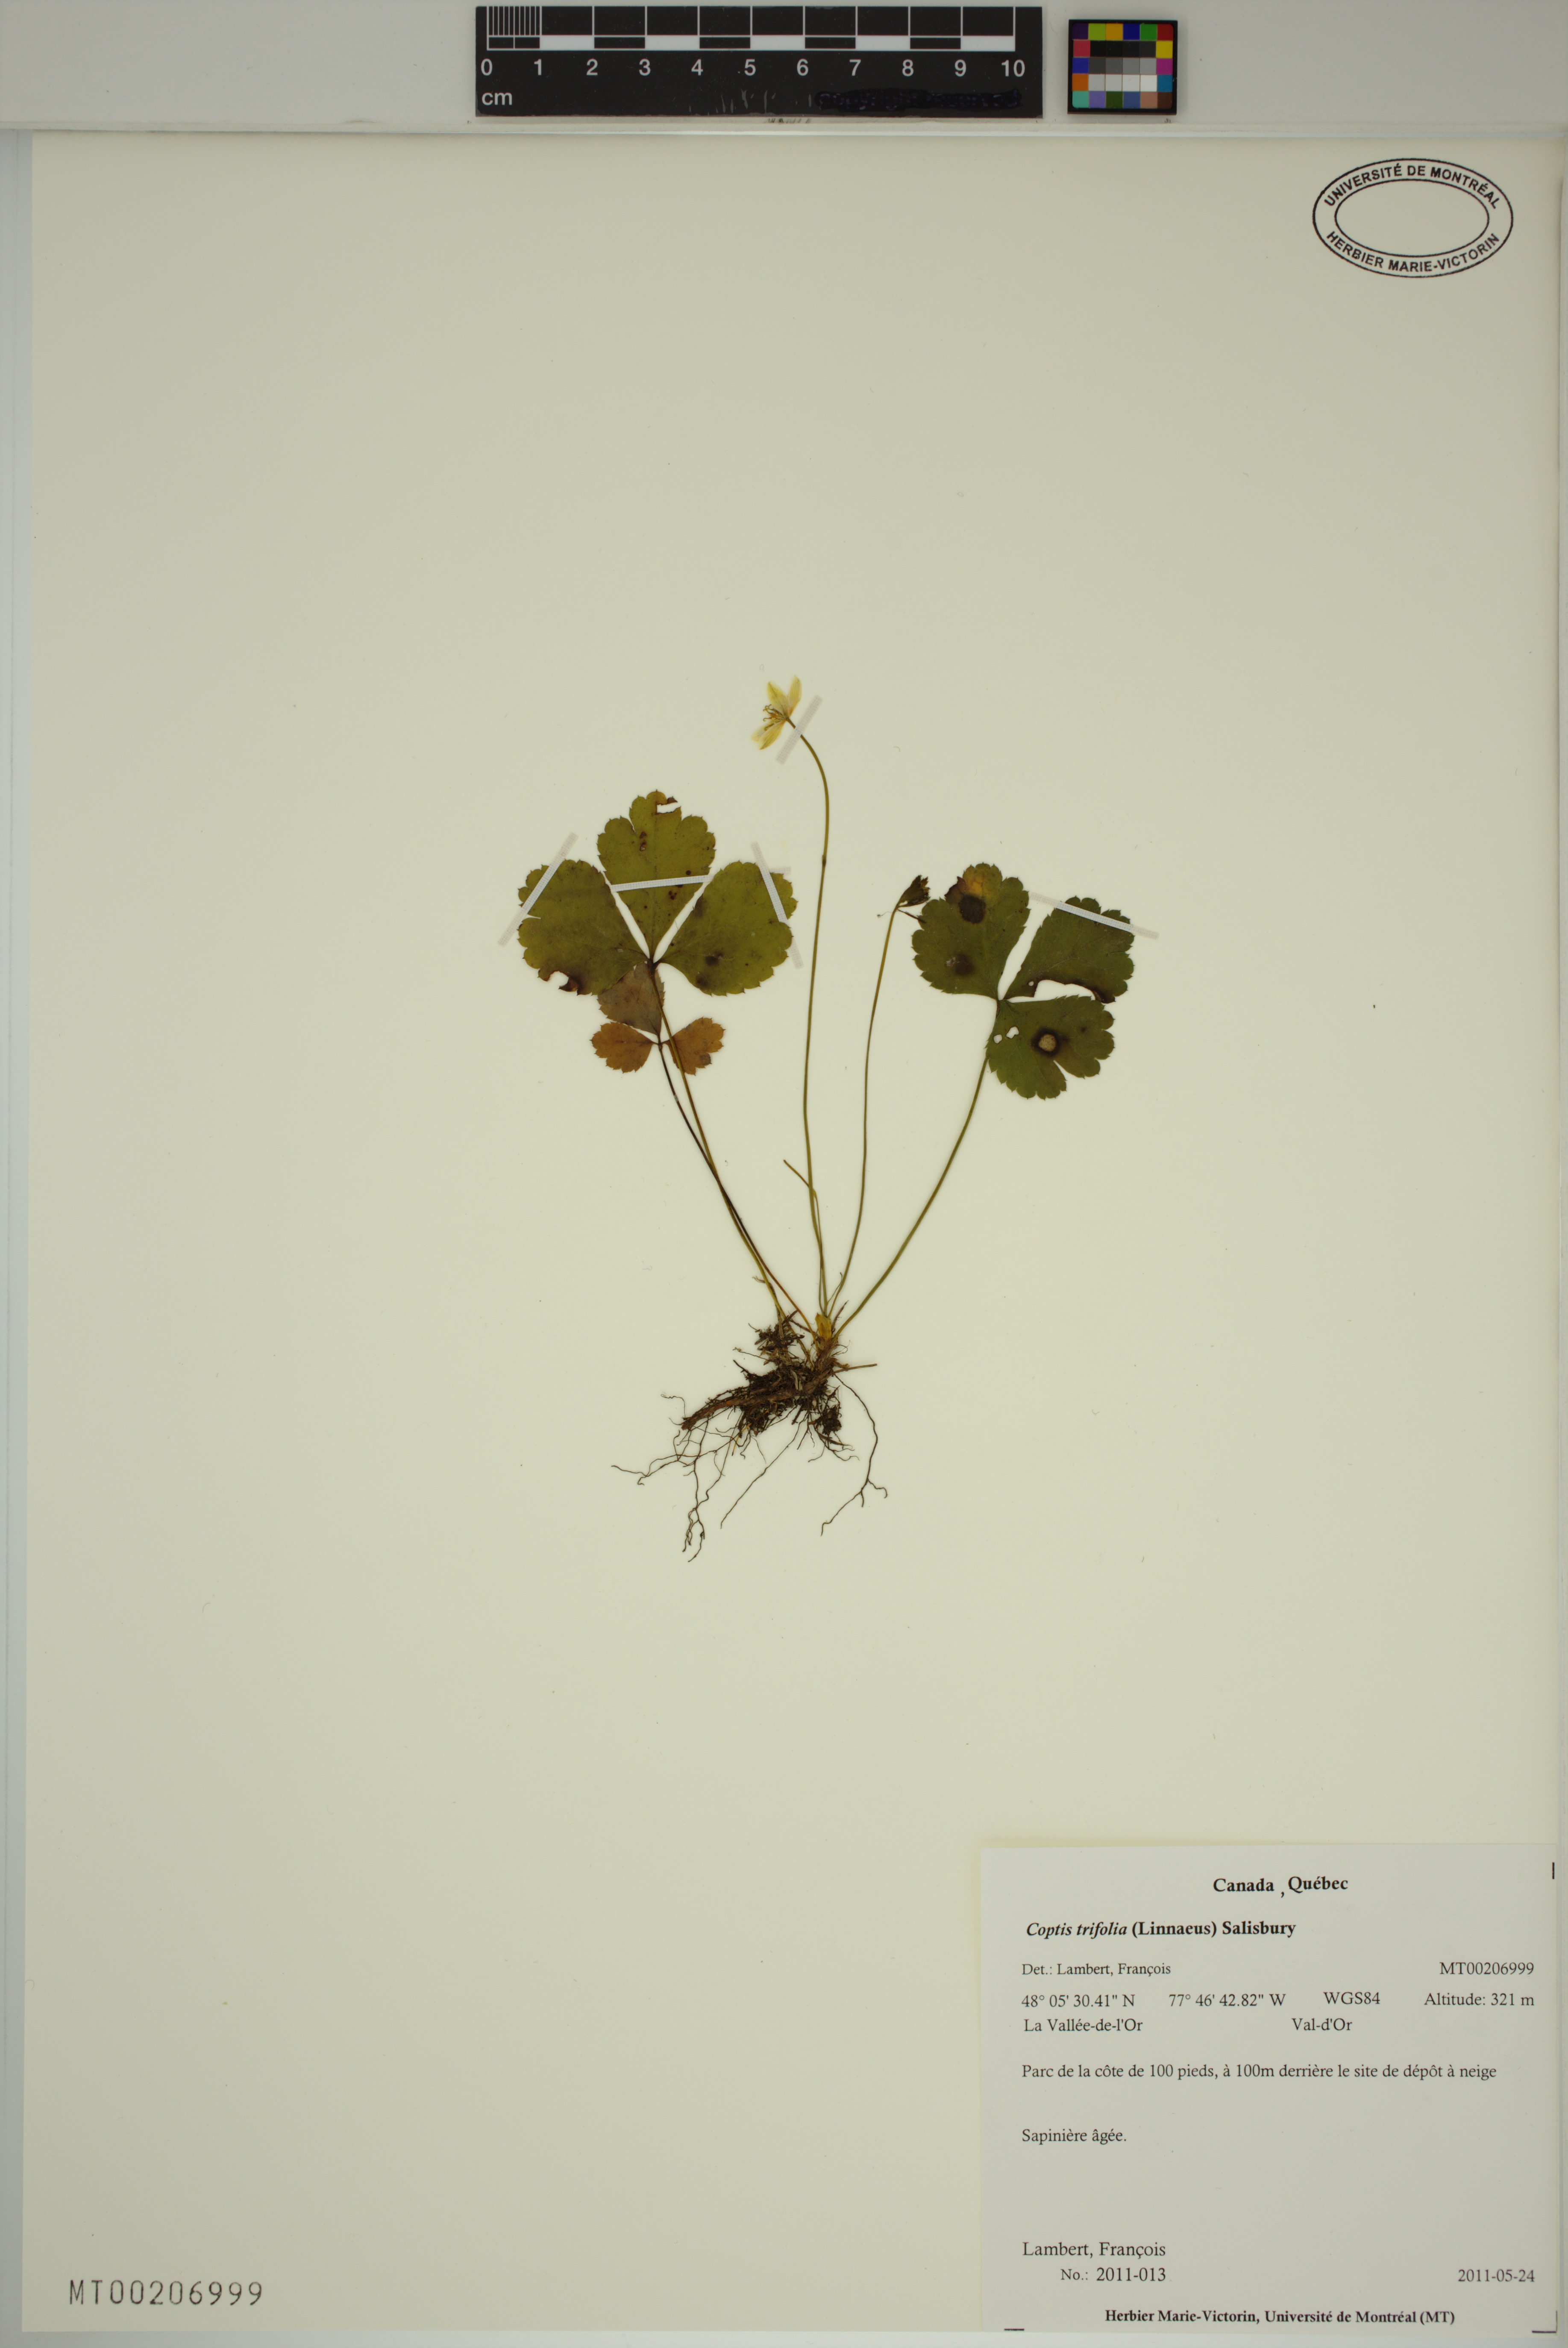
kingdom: Plantae
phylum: Tracheophyta
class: Magnoliopsida
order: Ranunculales
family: Ranunculaceae
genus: Coptis
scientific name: Coptis trifolia
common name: Canker-root
